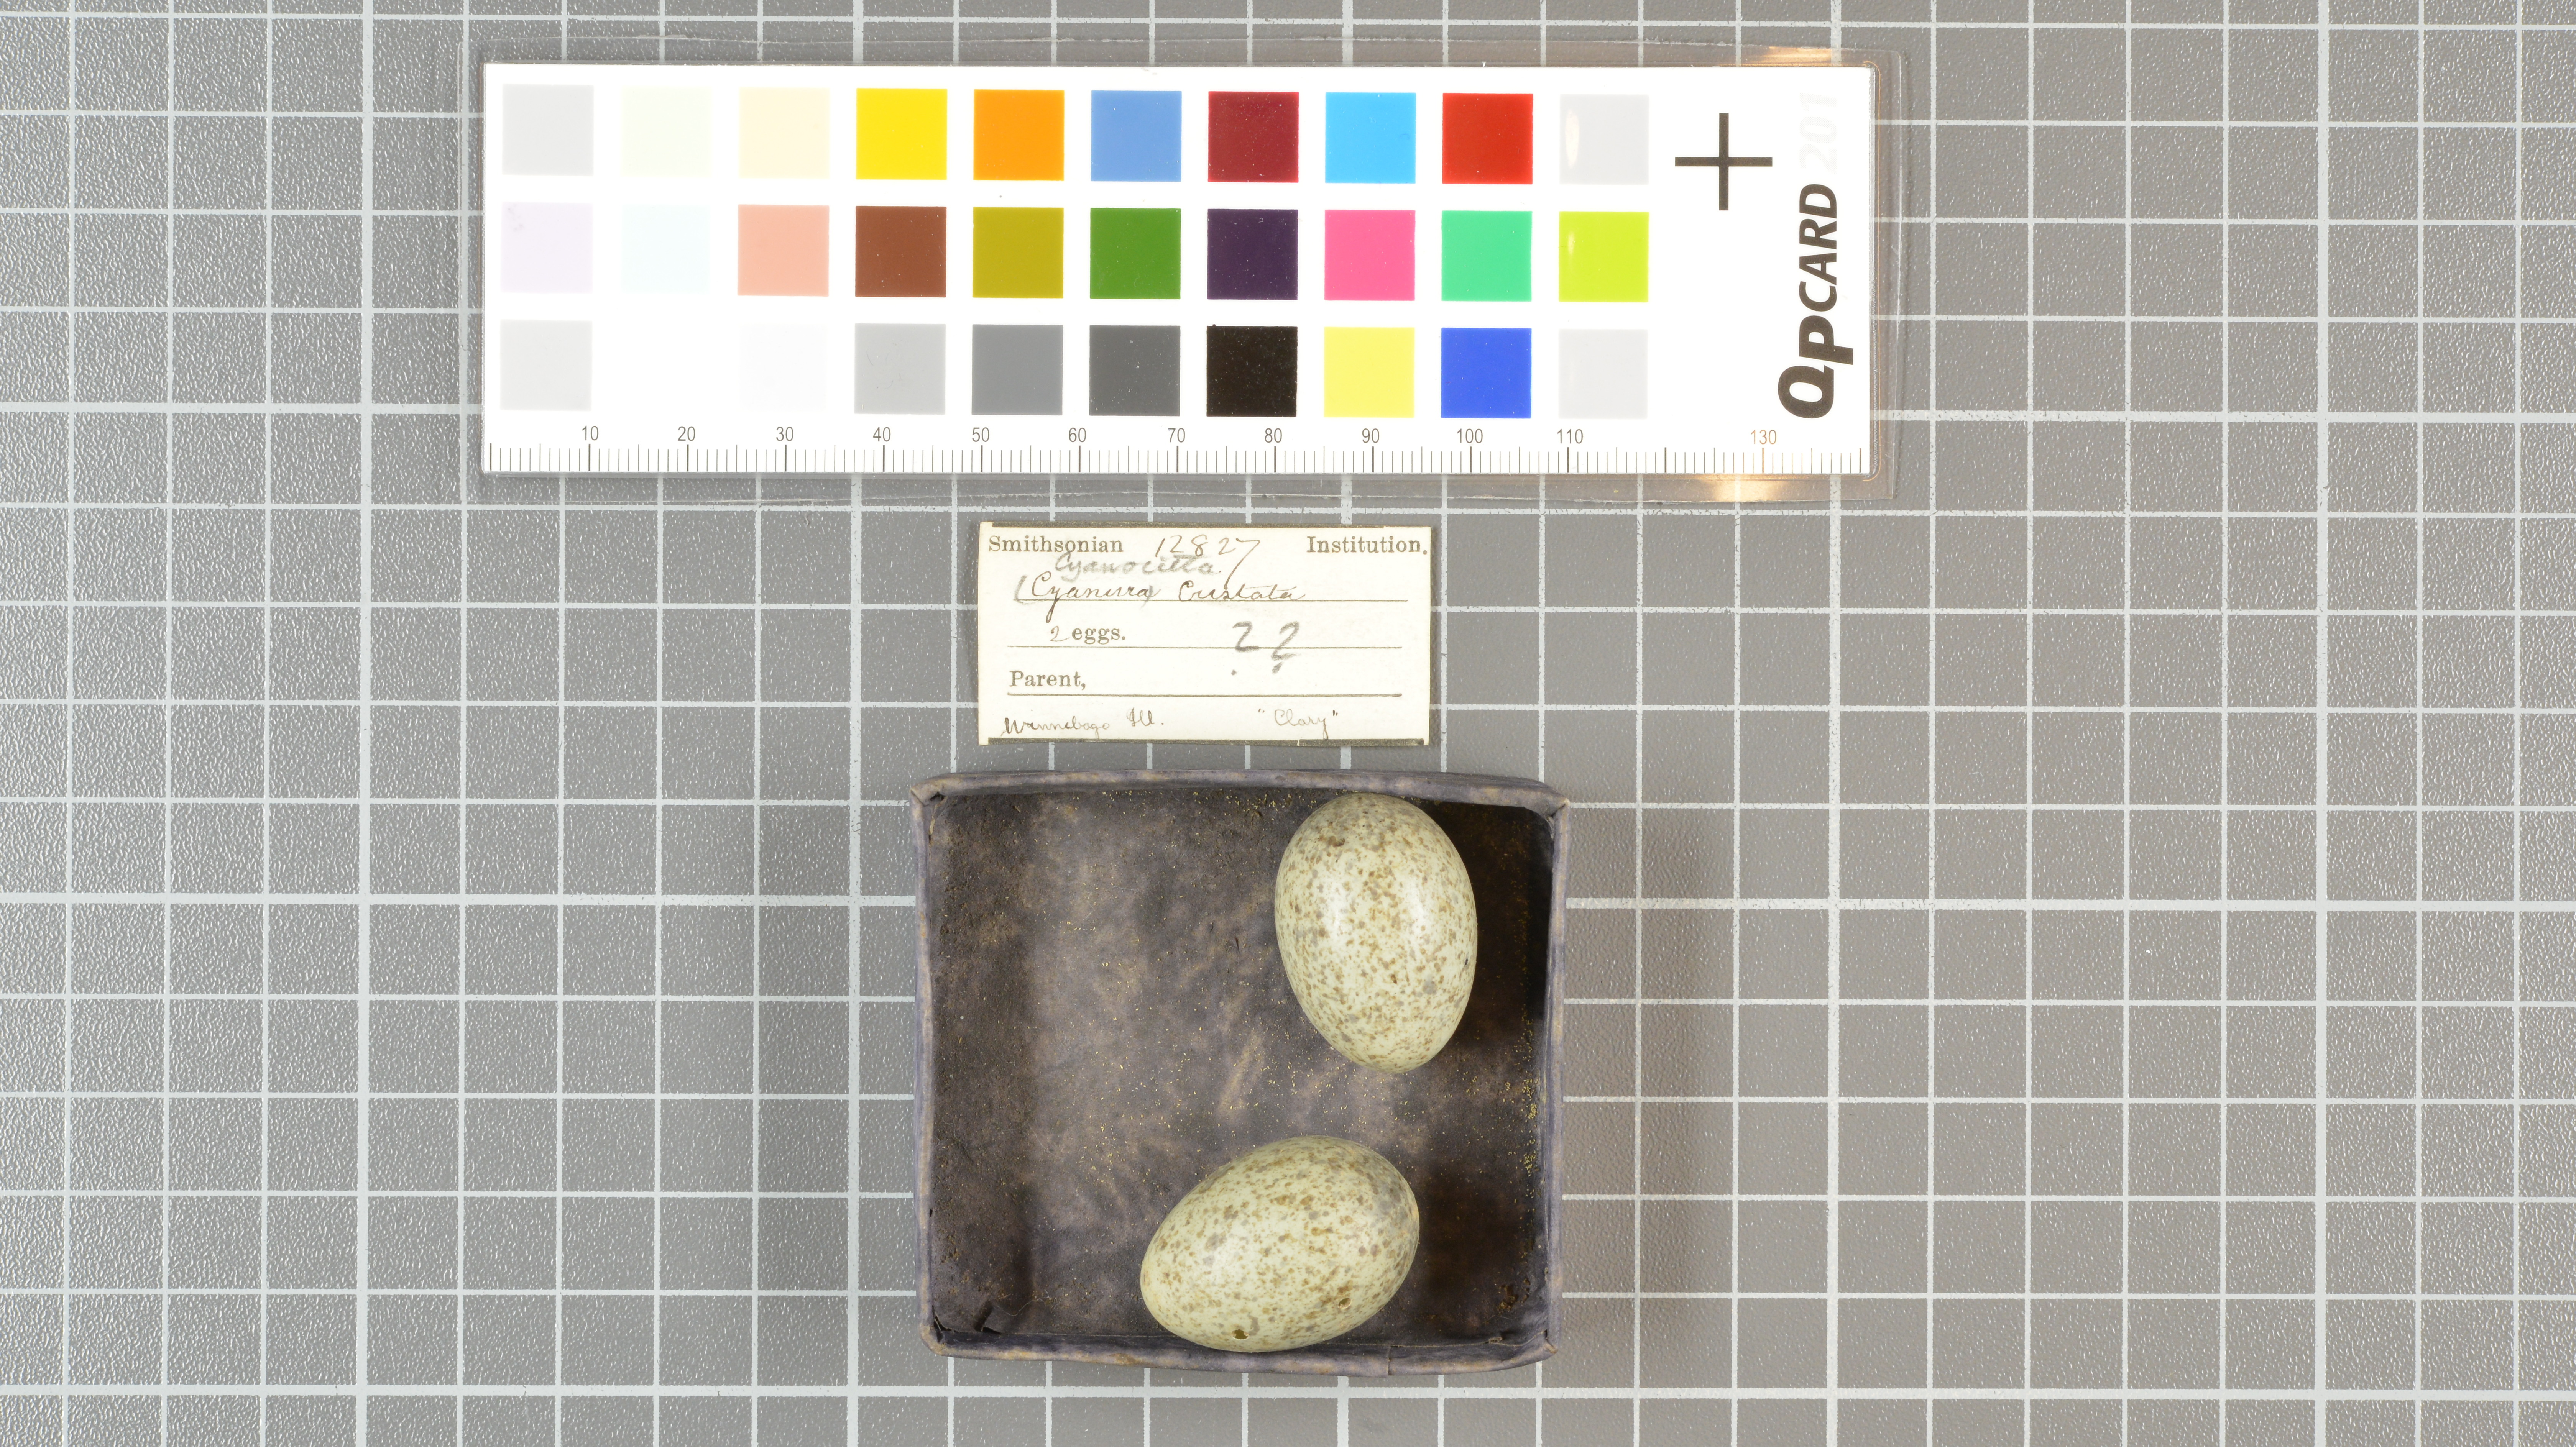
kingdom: Animalia
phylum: Chordata
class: Aves
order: Passeriformes
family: Corvidae
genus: Cyanocitta
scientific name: Cyanocitta cristata
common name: Blue jay
